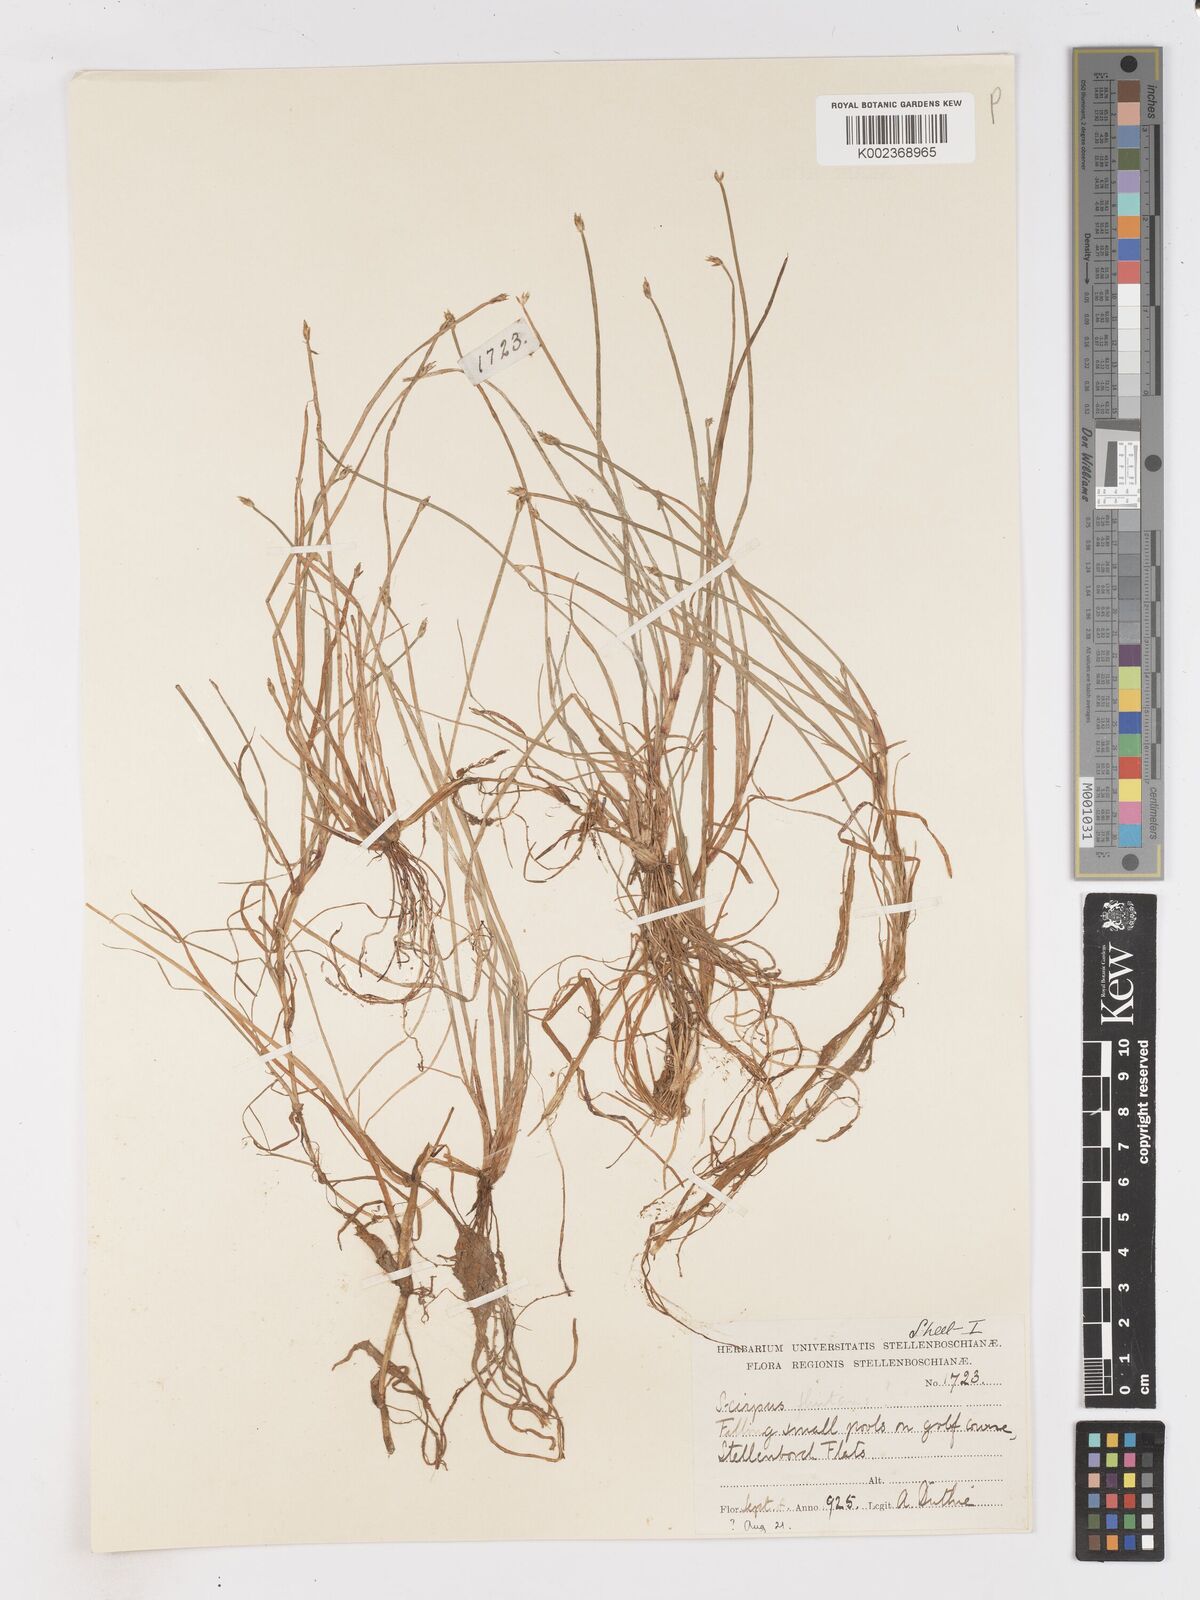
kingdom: Plantae
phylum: Tracheophyta
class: Liliopsida
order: Poales
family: Cyperaceae
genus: Isolepis
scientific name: Isolepis striata
